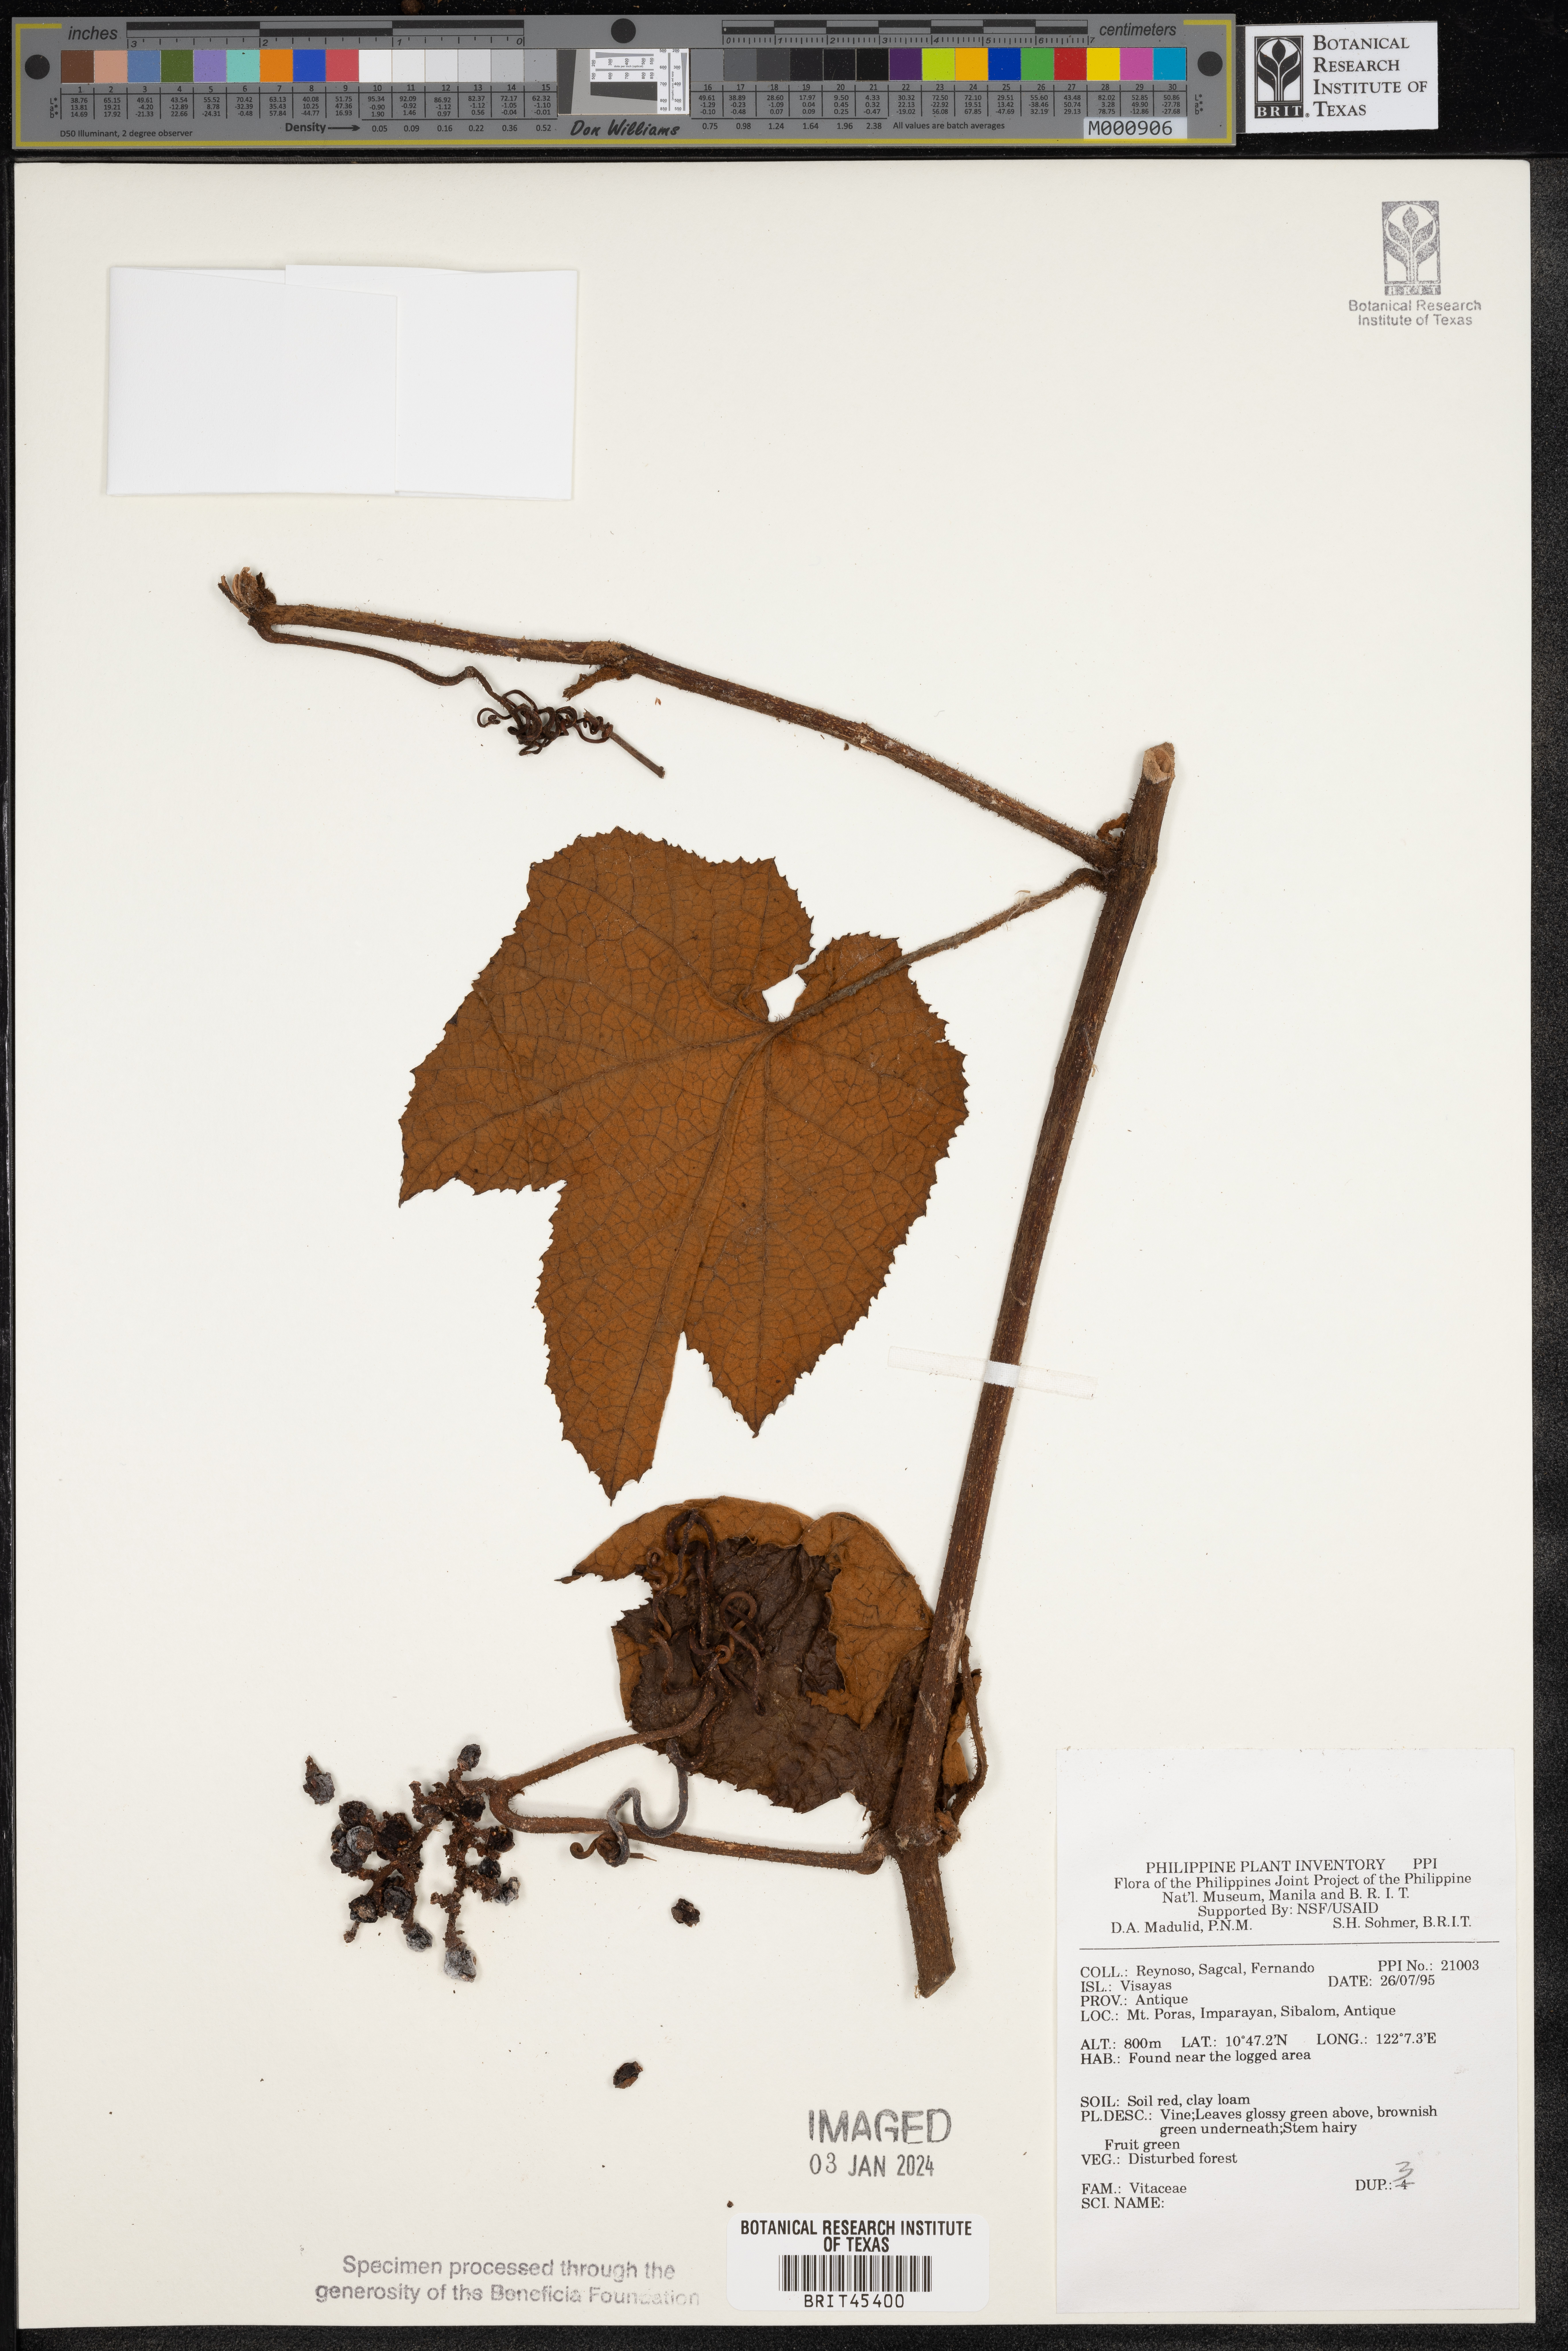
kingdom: Plantae
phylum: Tracheophyta
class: Magnoliopsida
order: Vitales
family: Vitaceae
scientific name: Vitaceae
